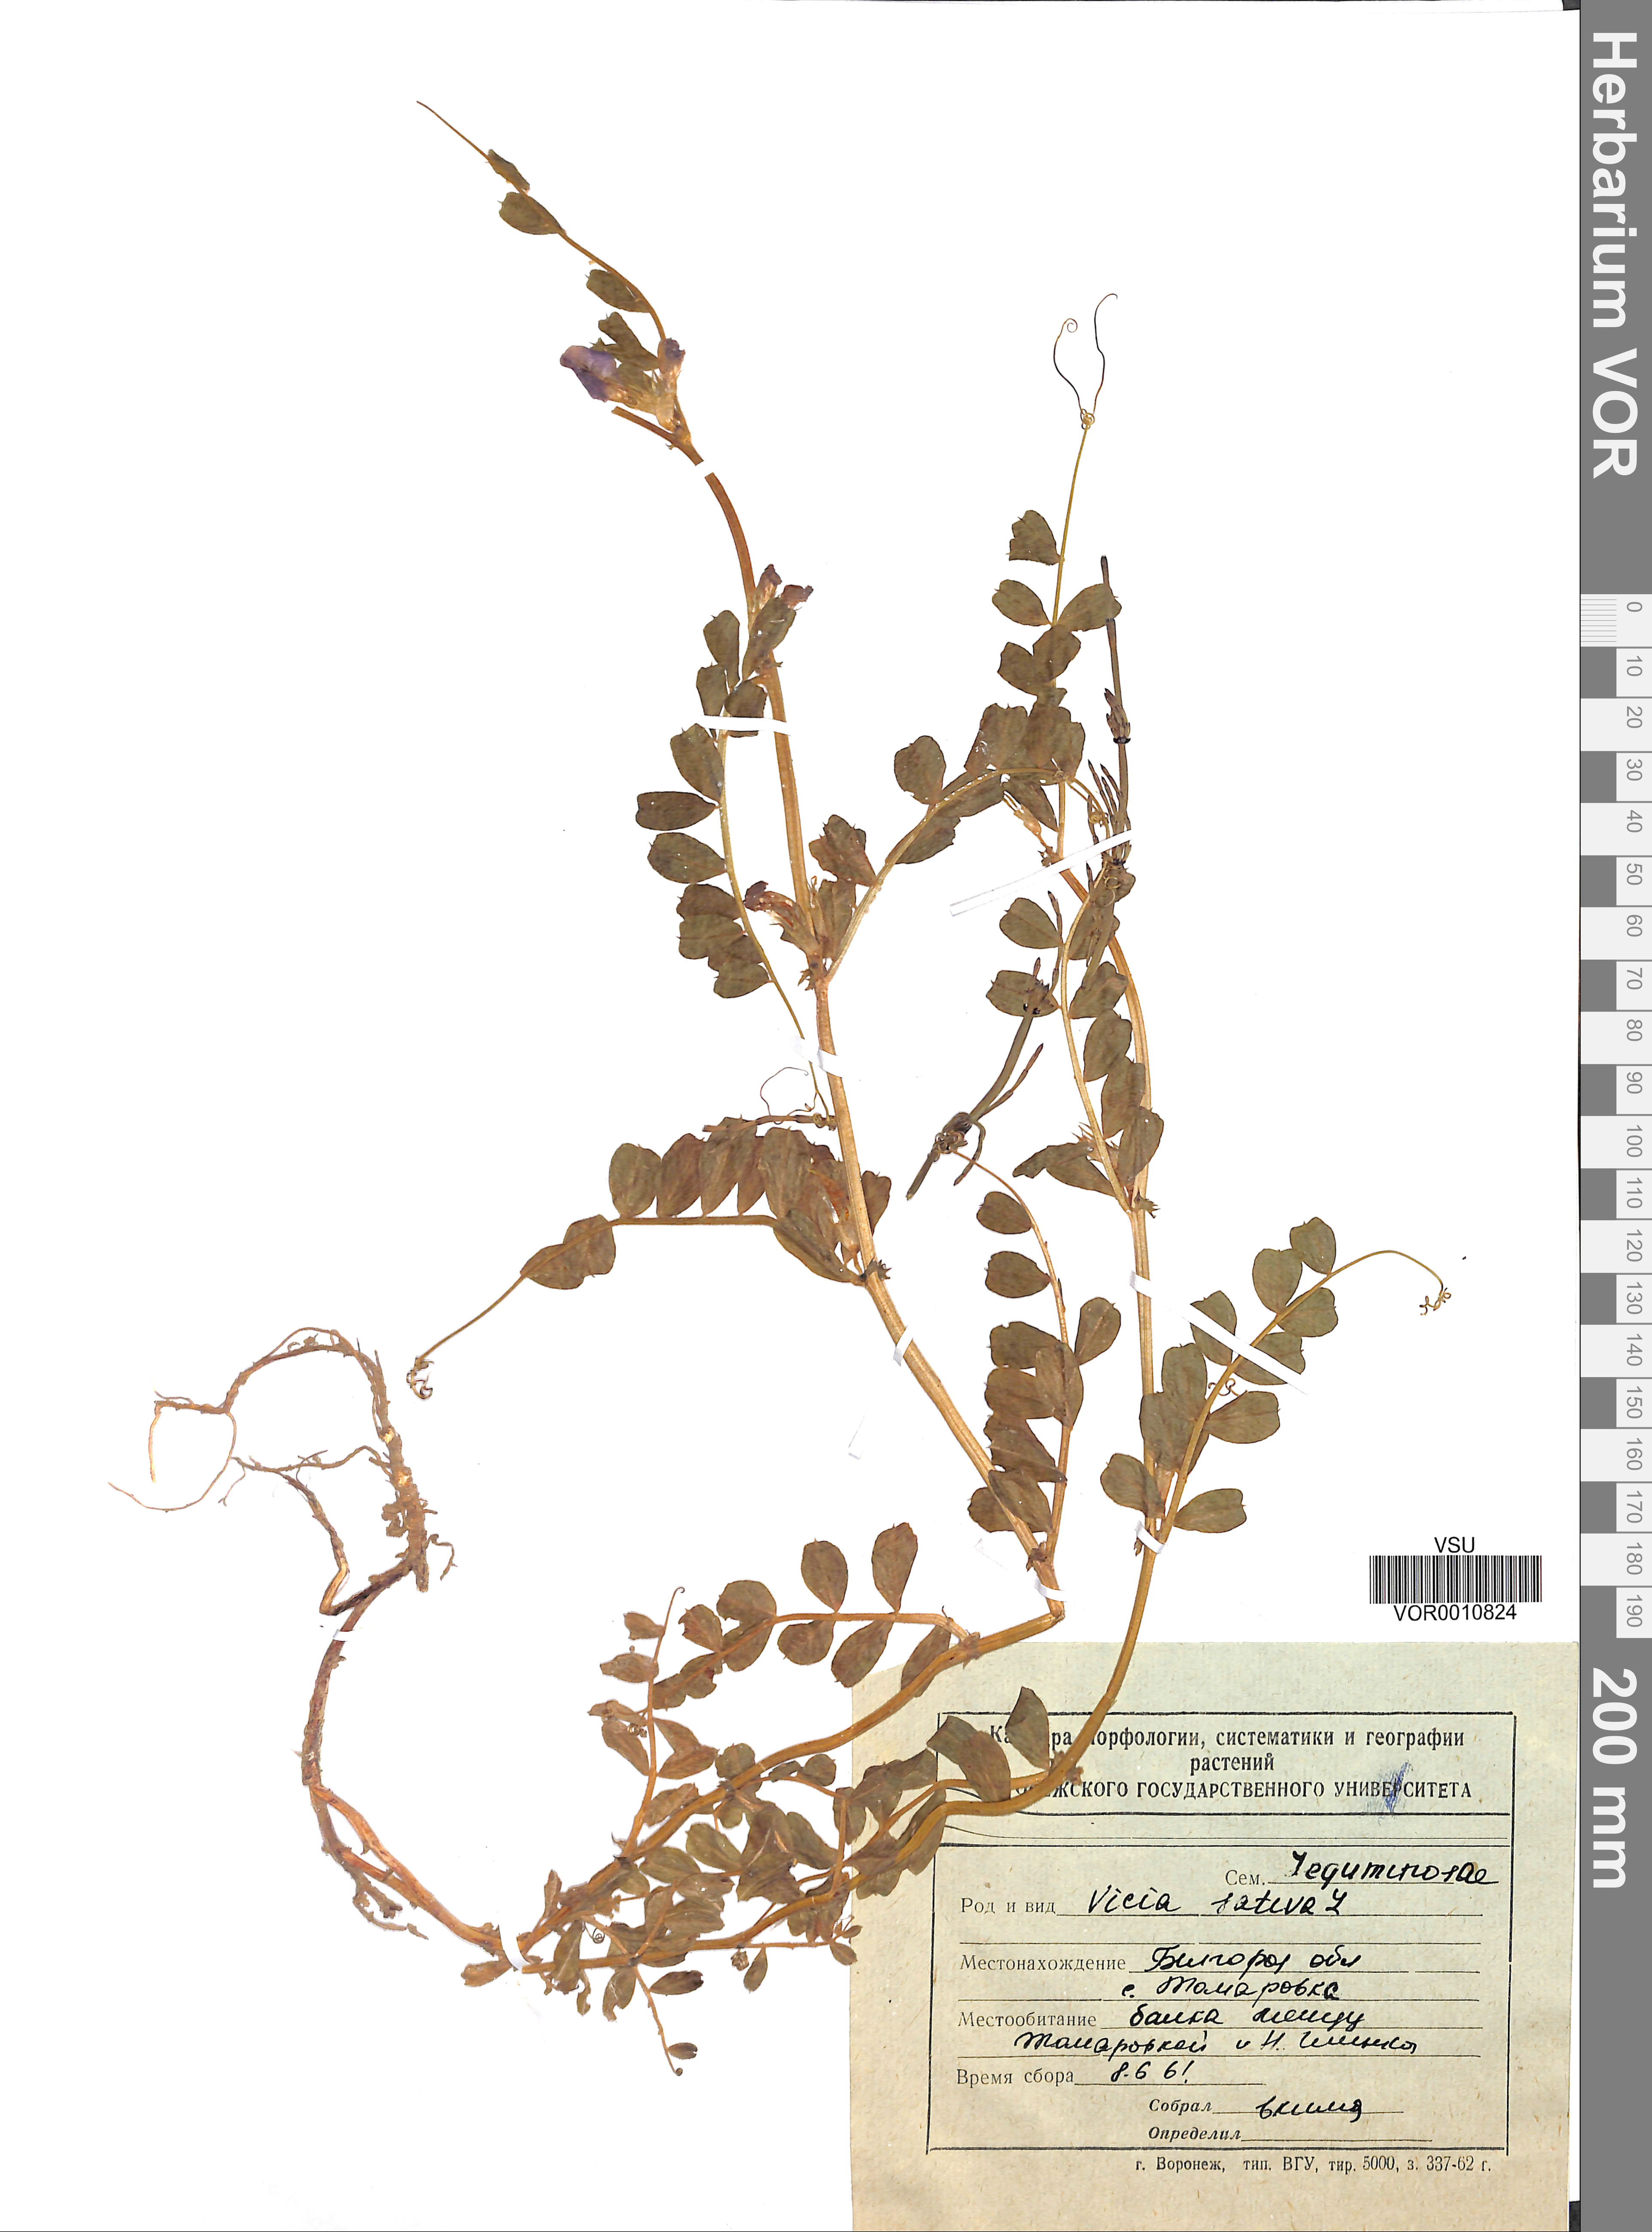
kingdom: Plantae
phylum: Tracheophyta
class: Magnoliopsida
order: Fabales
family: Fabaceae
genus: Vicia
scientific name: Vicia sativa
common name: Garden vetch
